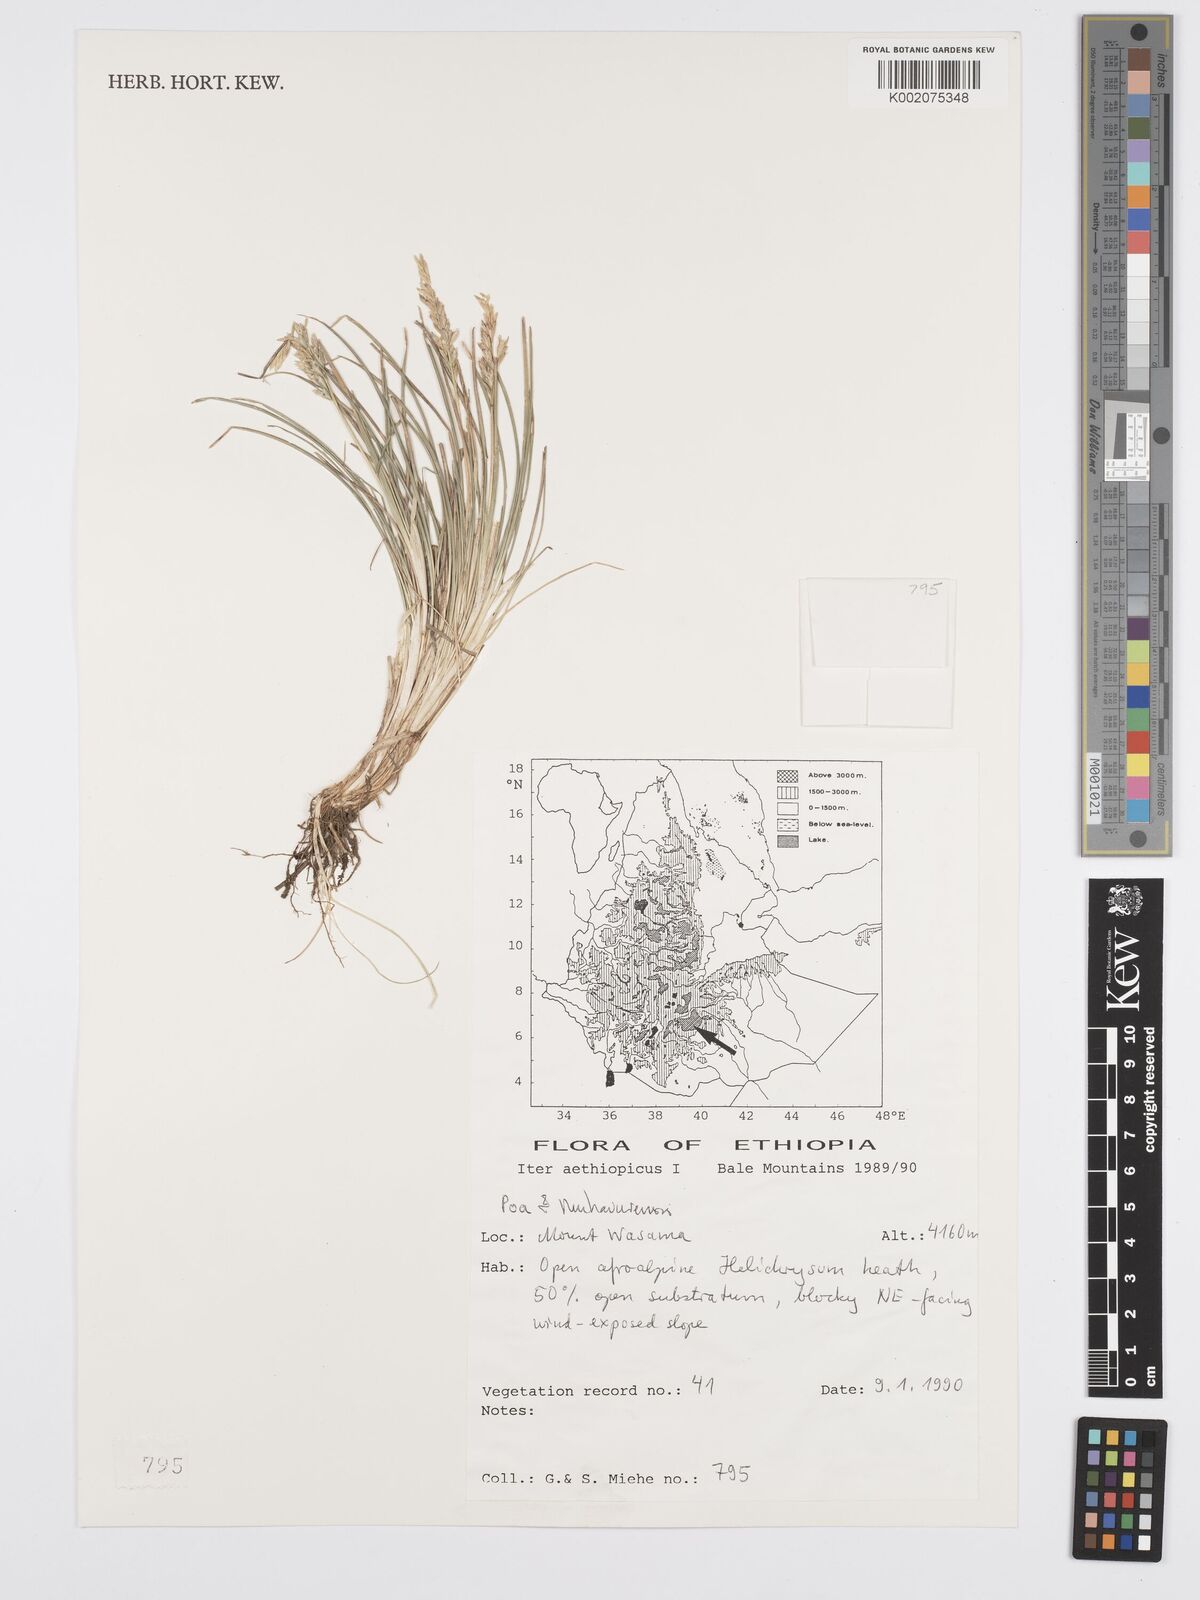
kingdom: Plantae
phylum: Tracheophyta
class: Liliopsida
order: Poales
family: Poaceae
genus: Poa
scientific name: Poa schimperiana
